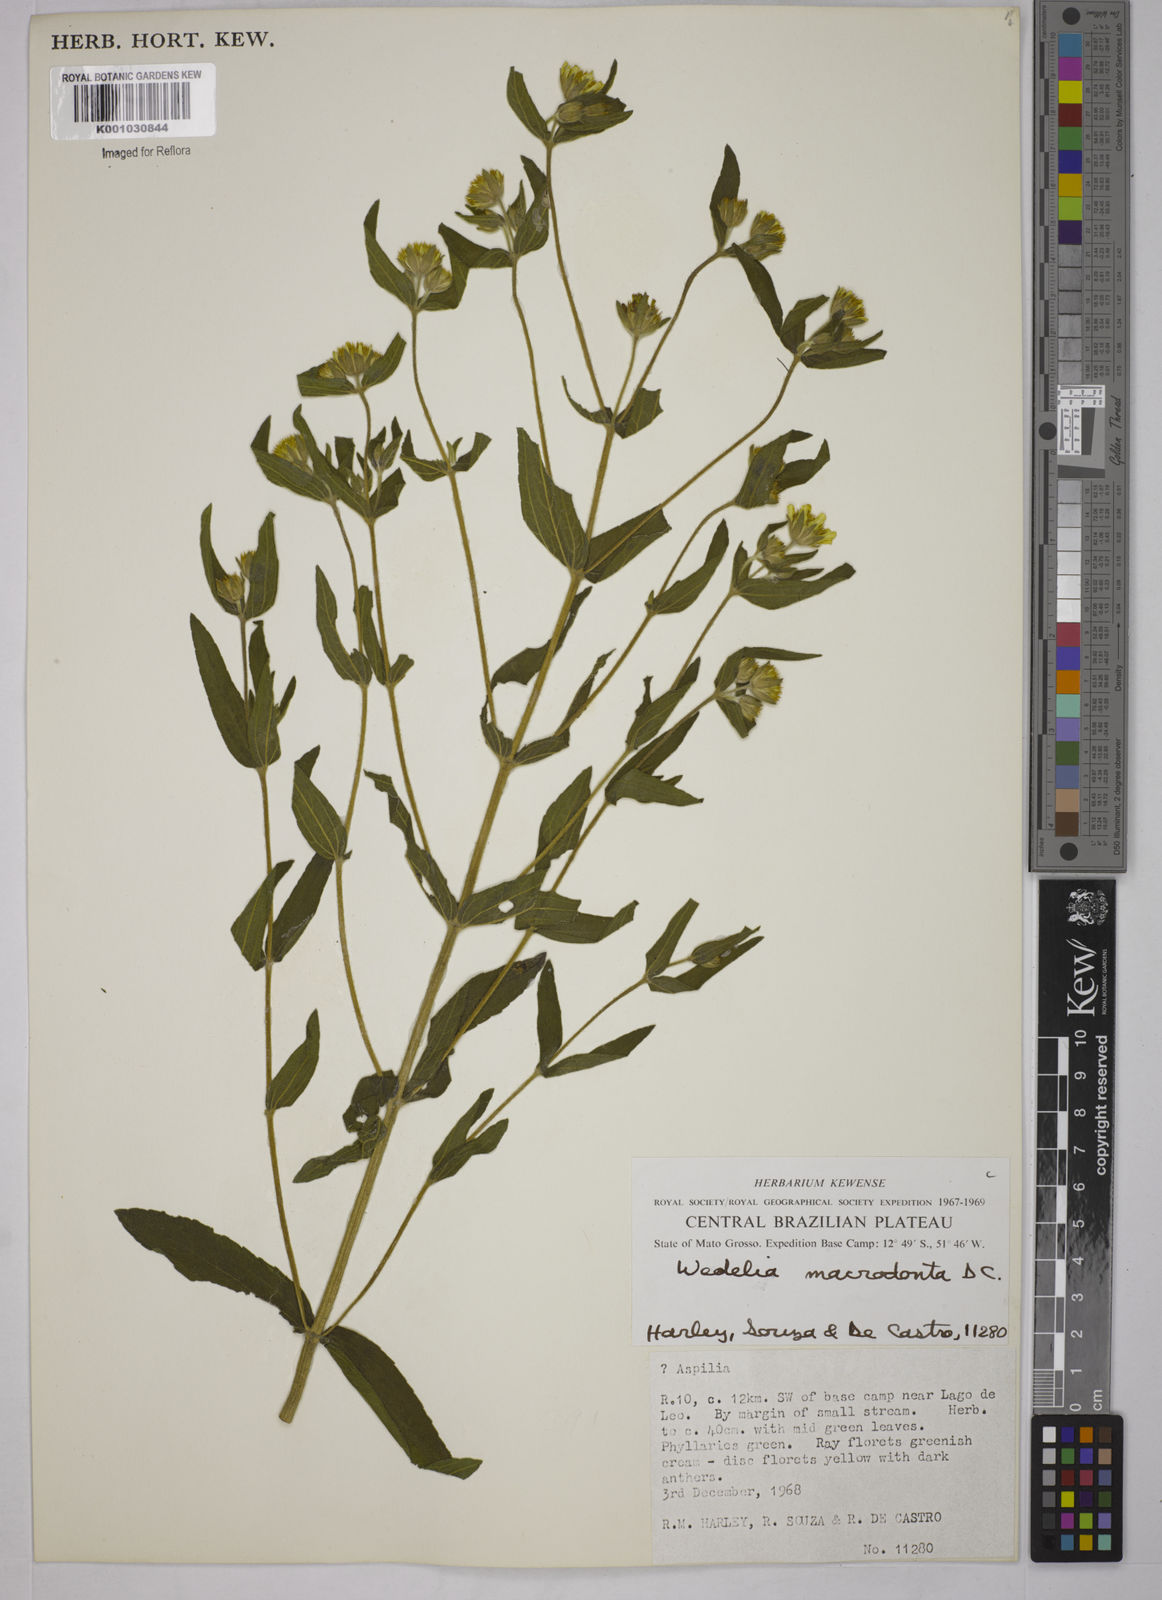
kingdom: Plantae
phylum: Tracheophyta
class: Magnoliopsida
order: Asterales
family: Asteraceae
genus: Wedelia
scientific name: Wedelia macrodonta
